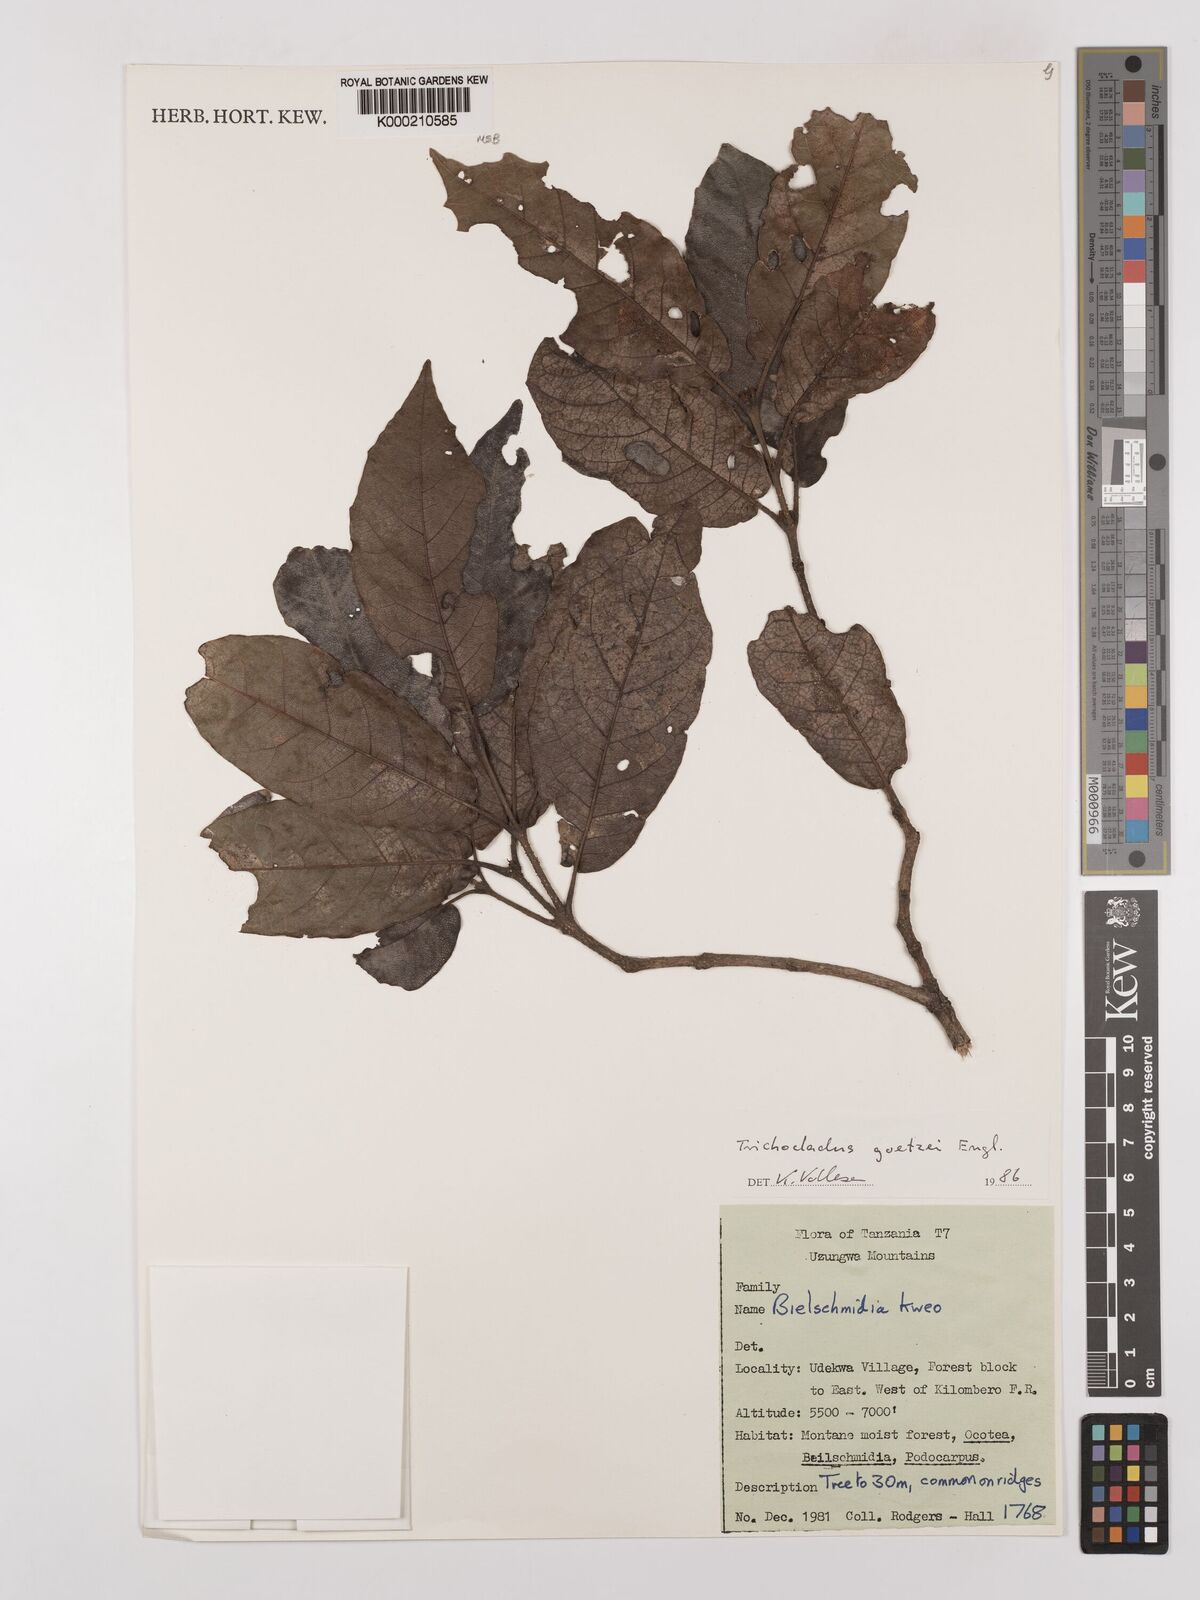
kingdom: Plantae
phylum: Tracheophyta
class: Magnoliopsida
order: Saxifragales
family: Hamamelidaceae
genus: Trichocladus
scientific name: Trichocladus goetzei
